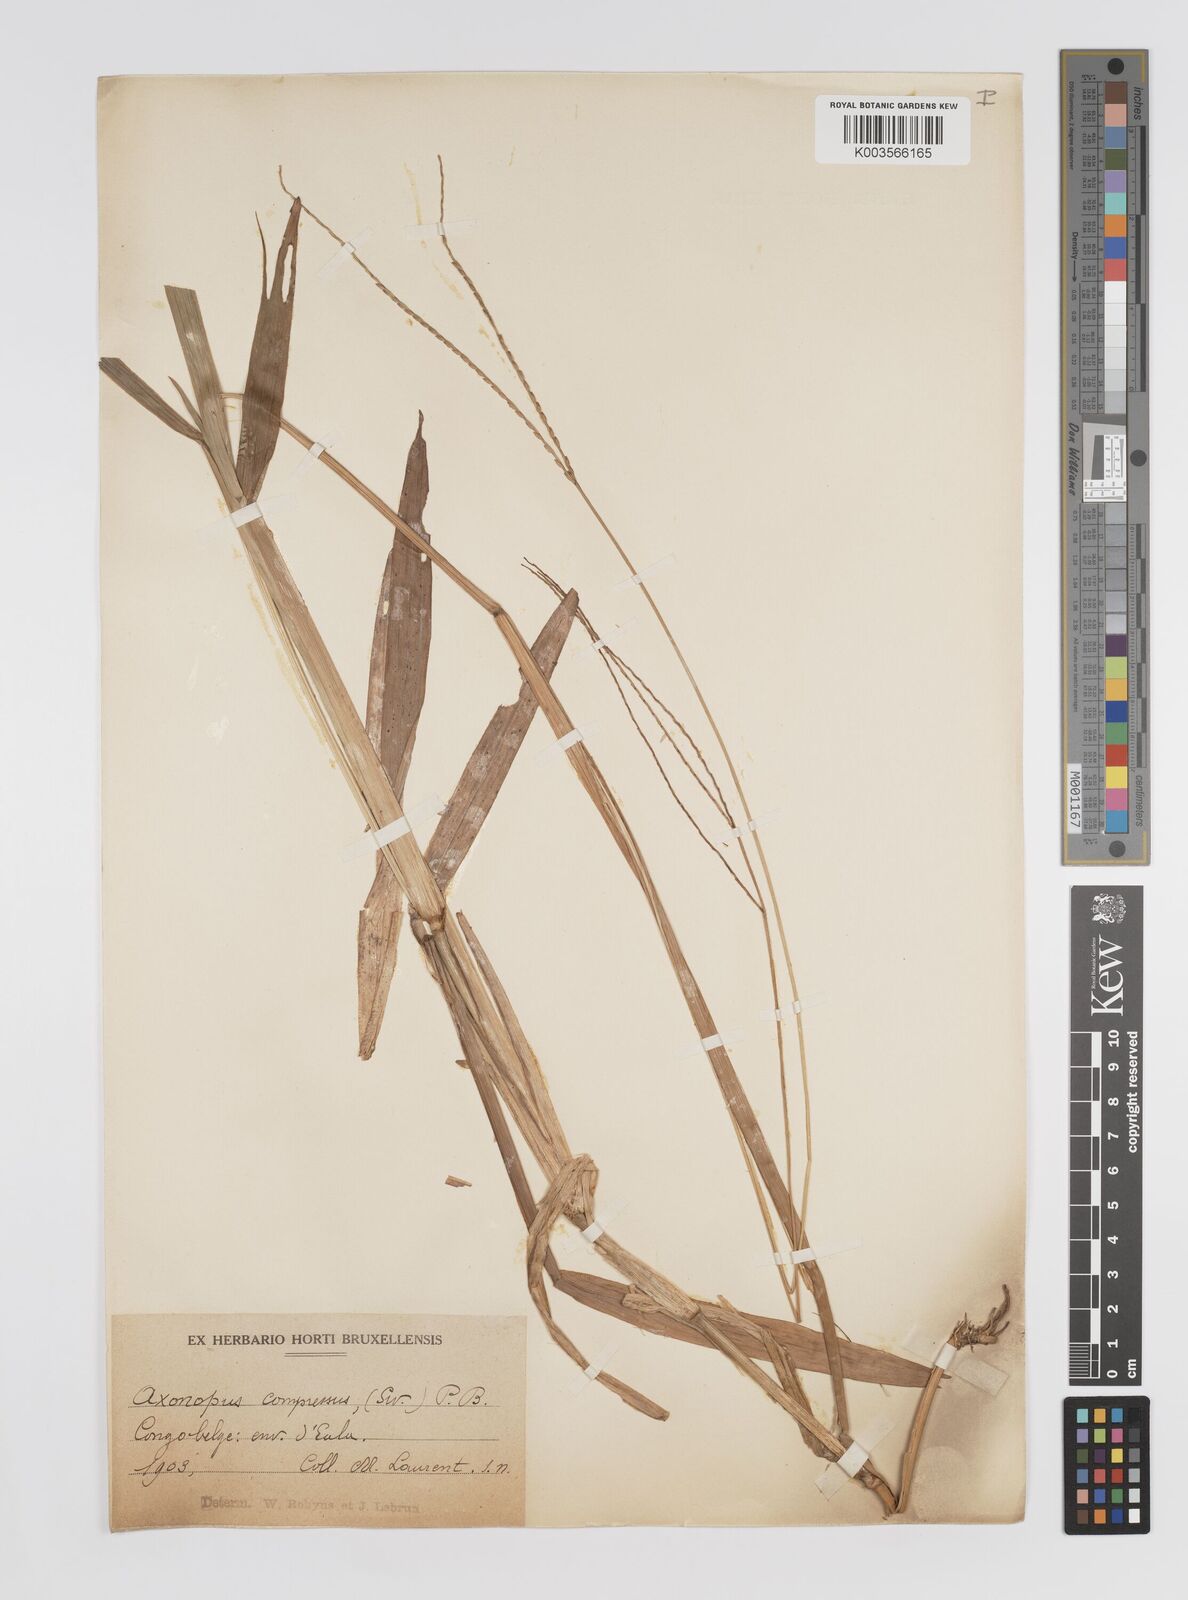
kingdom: Plantae
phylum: Tracheophyta
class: Liliopsida
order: Poales
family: Poaceae
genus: Axonopus
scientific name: Axonopus flexuosus
